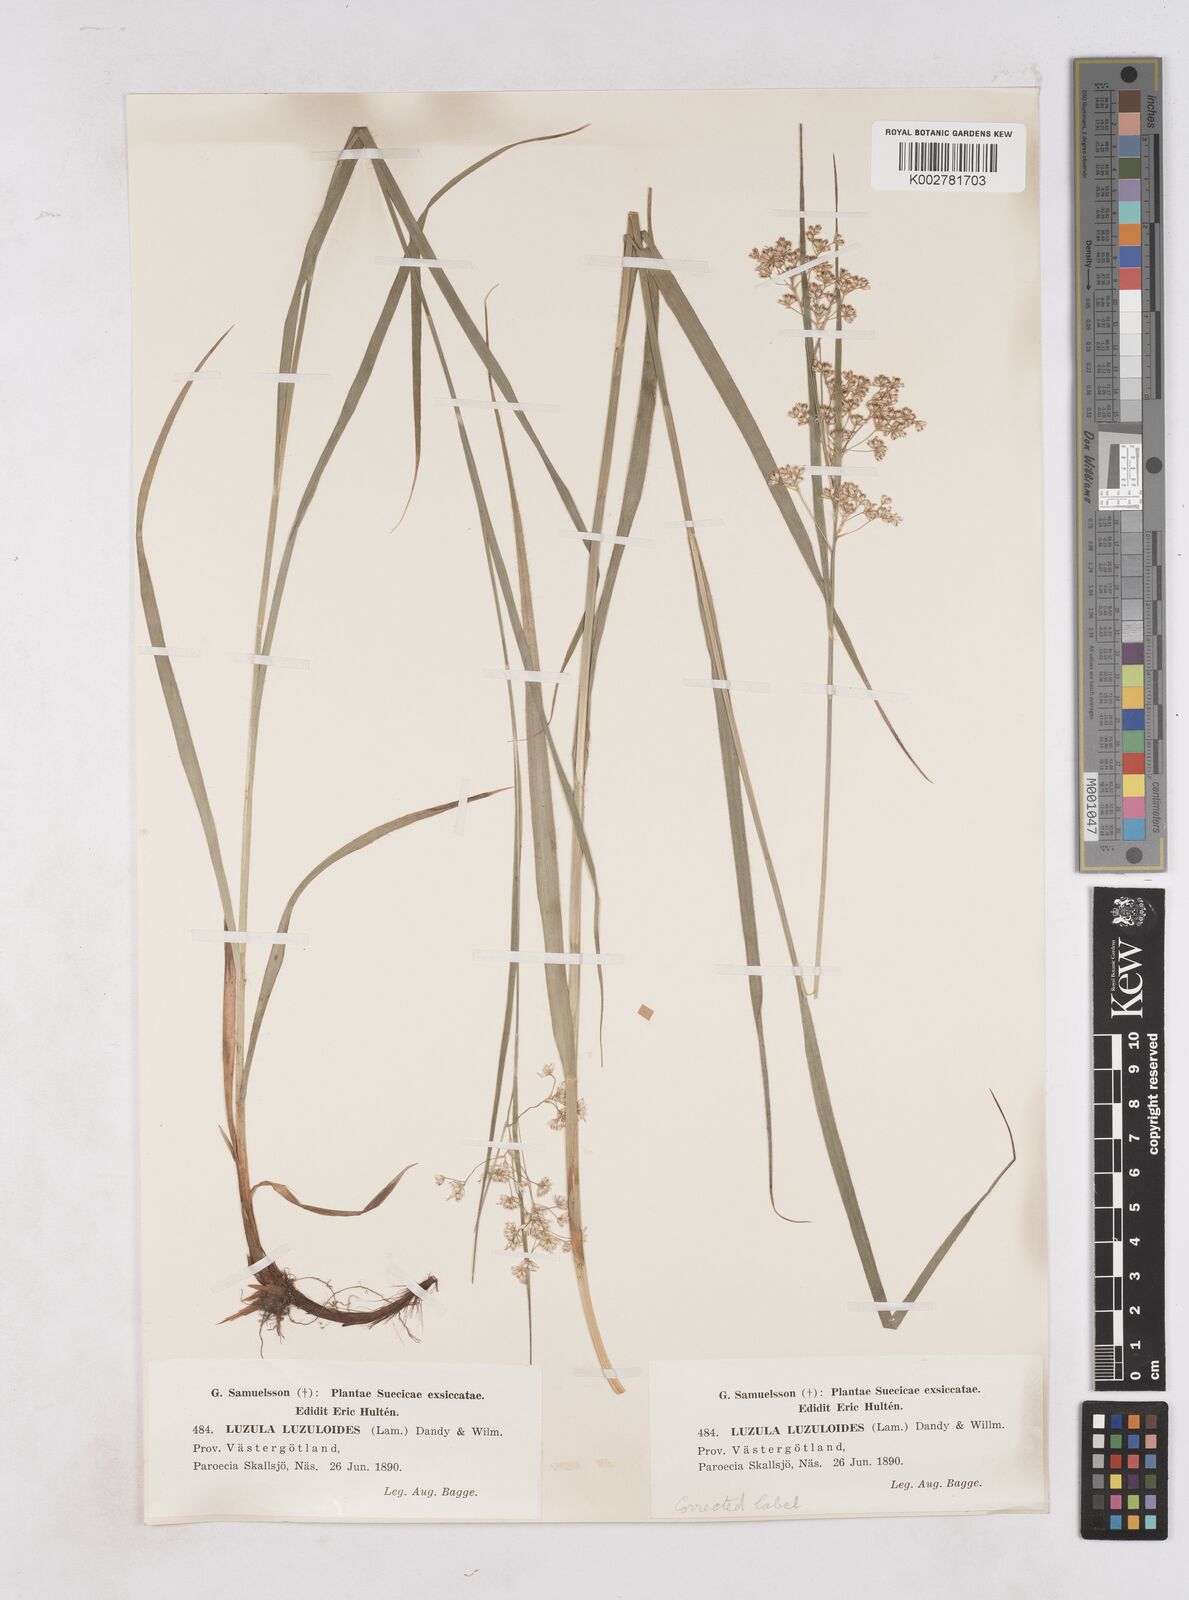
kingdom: Plantae
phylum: Tracheophyta
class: Liliopsida
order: Poales
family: Juncaceae
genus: Luzula
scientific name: Luzula luzuloides
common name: White wood-rush
